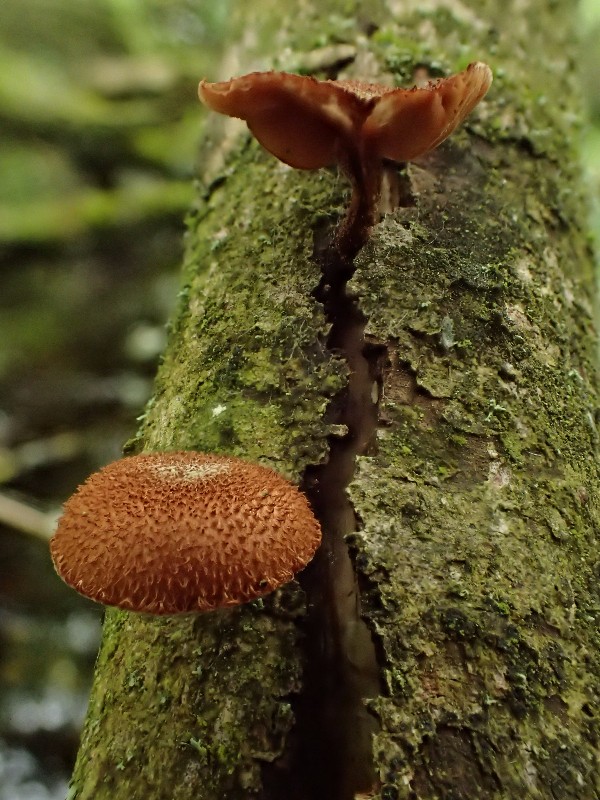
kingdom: Fungi
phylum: Basidiomycota
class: Agaricomycetes
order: Agaricales
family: Tubariaceae
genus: Phaeomarasmius
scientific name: Phaeomarasmius erinaceus
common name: spidsskælhat
